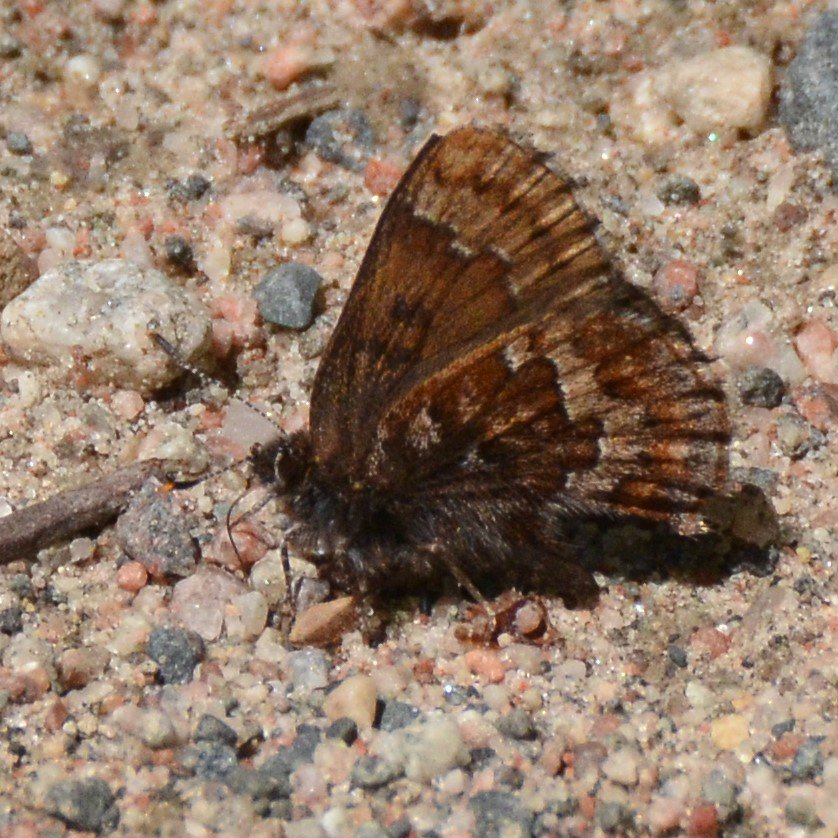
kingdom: Animalia
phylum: Arthropoda
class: Insecta
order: Lepidoptera
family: Lycaenidae
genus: Incisalia
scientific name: Incisalia niphon
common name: Eastern Pine Elfin
